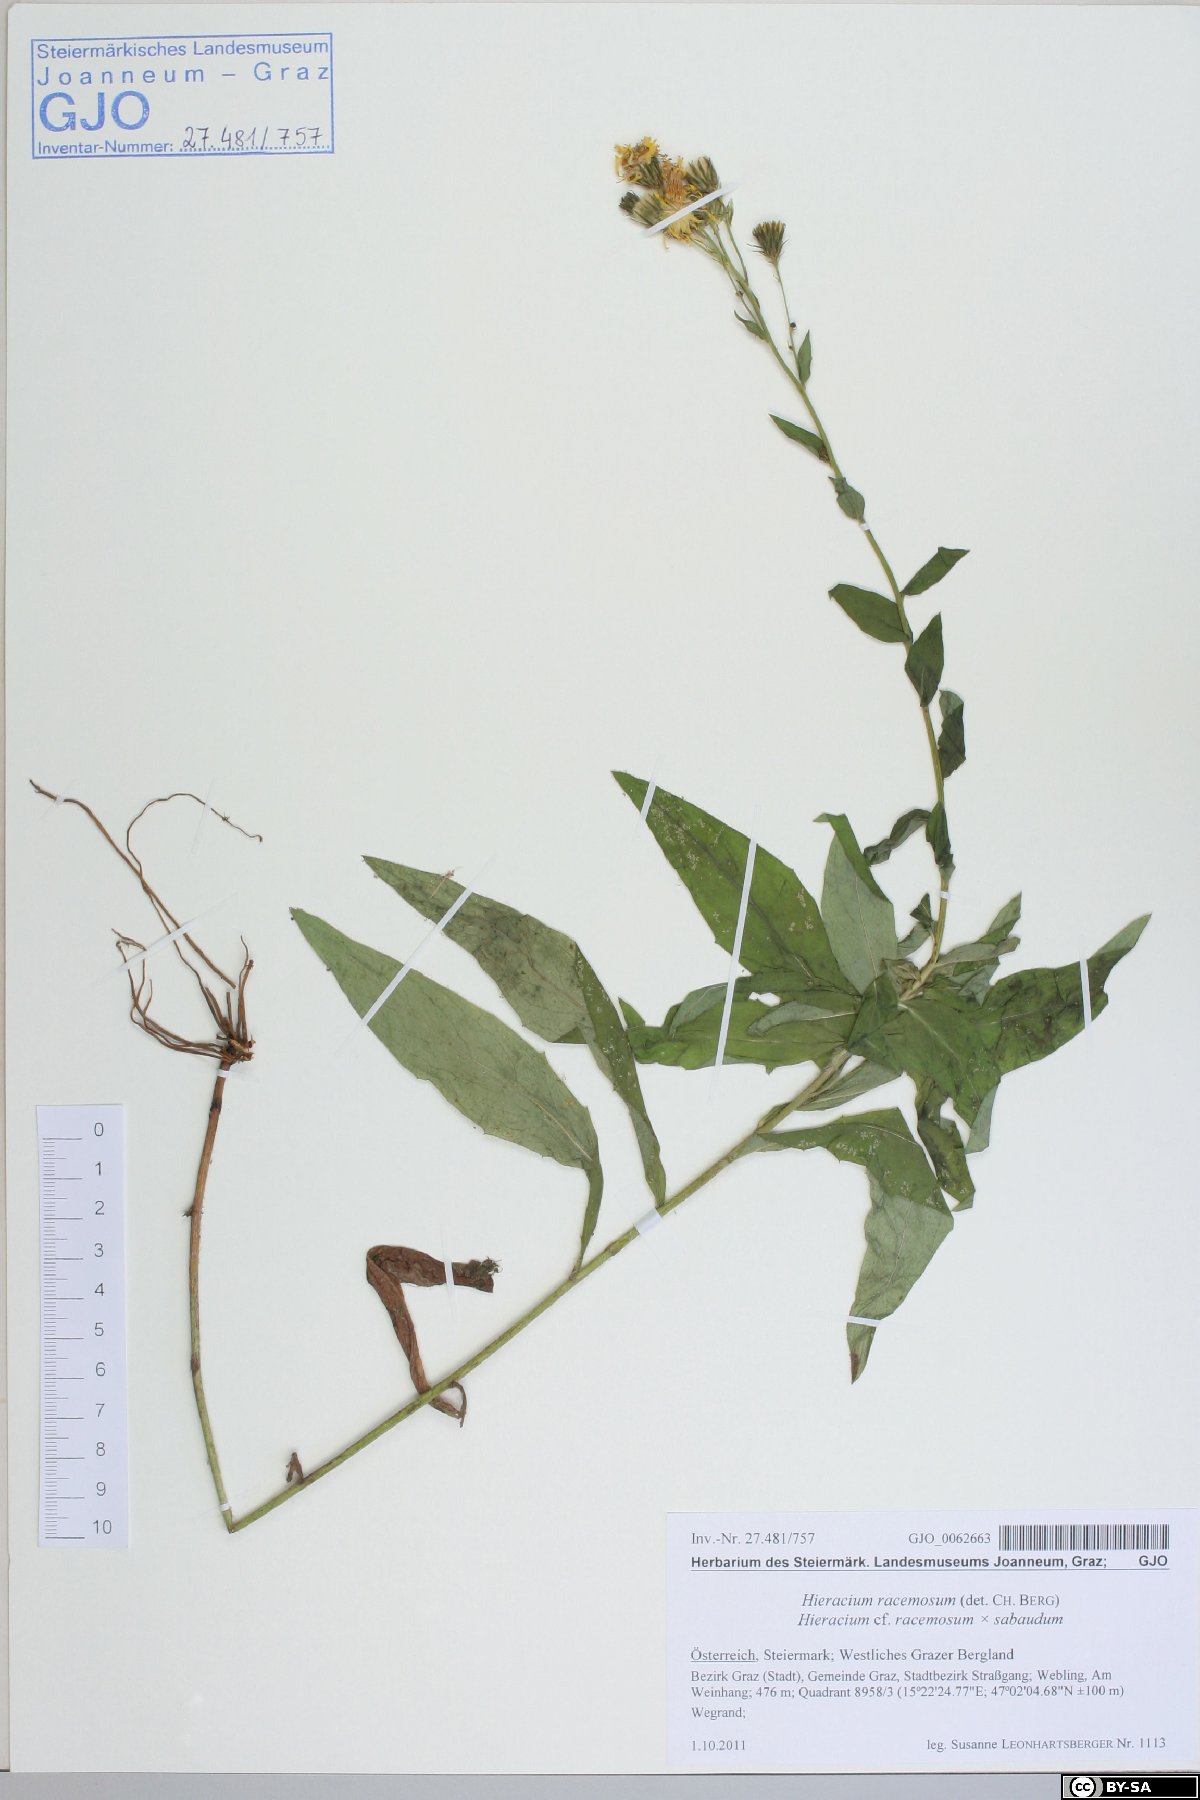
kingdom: Plantae
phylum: Tracheophyta
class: Magnoliopsida
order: Asterales
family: Asteraceae
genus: Hieracium
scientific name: Hieracium racemosum
